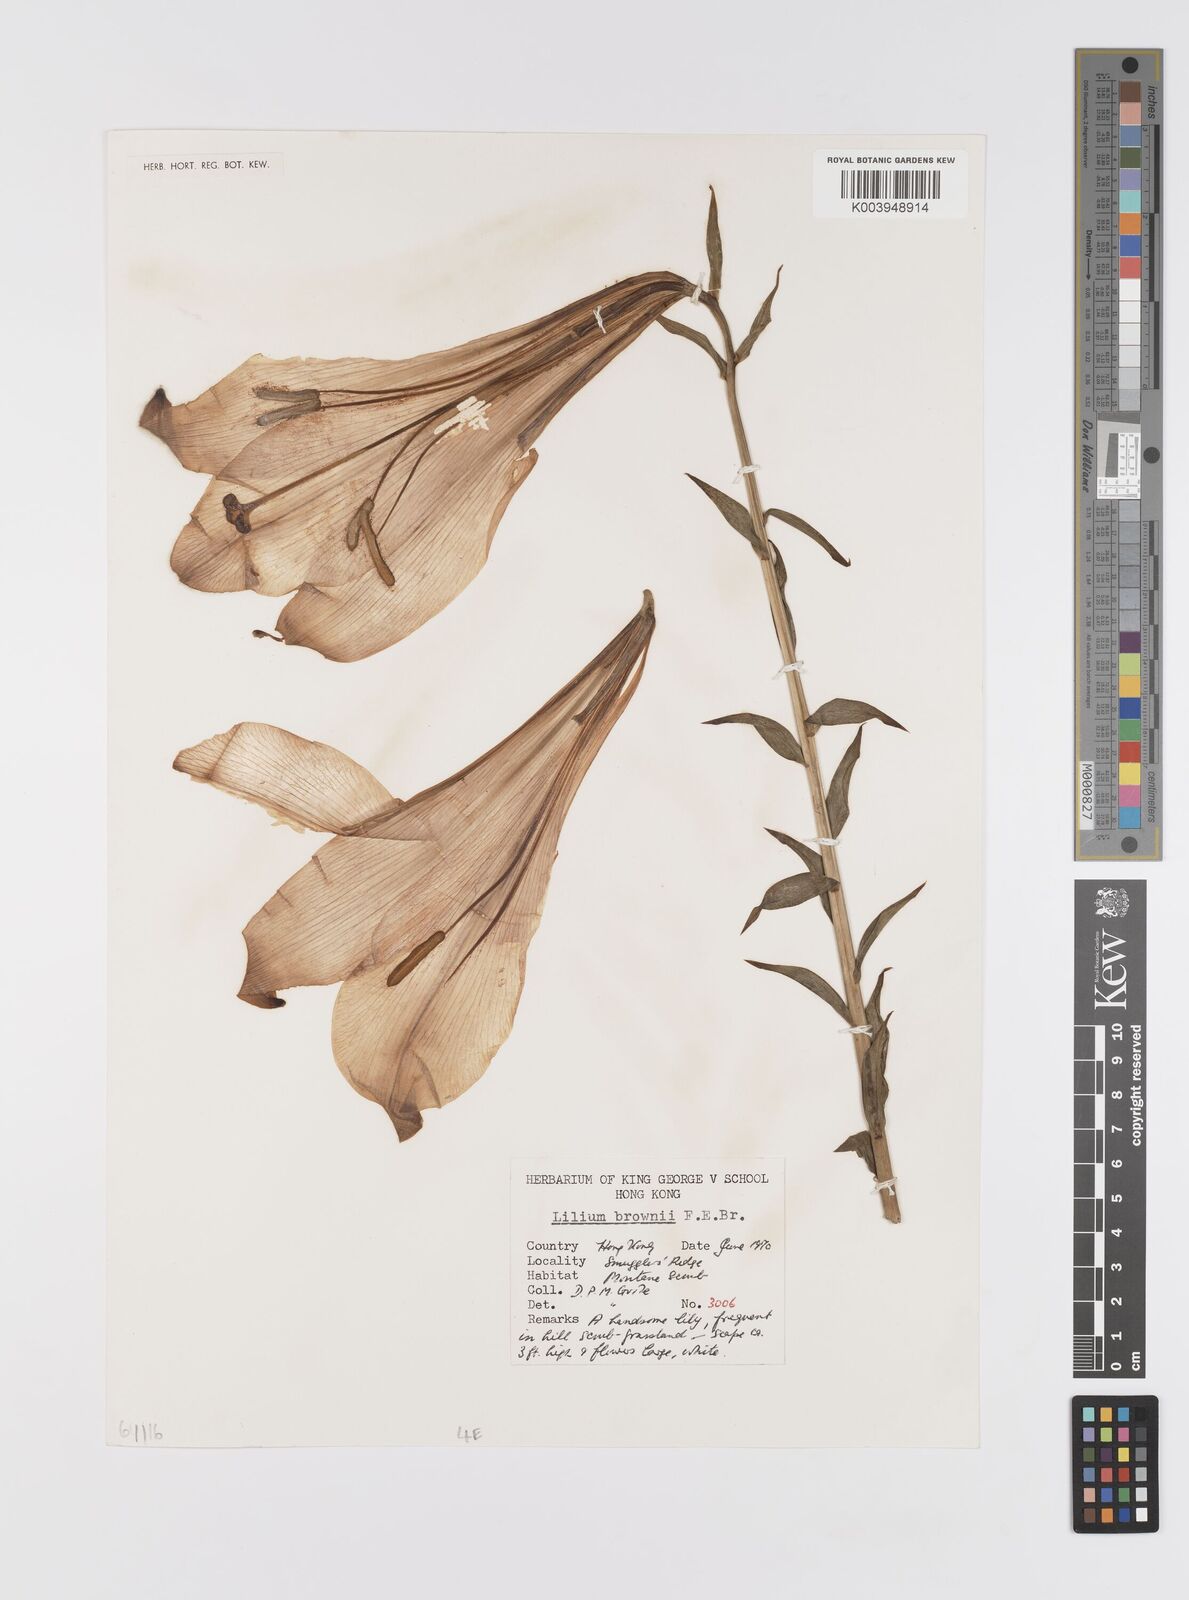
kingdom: Plantae
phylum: Tracheophyta
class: Liliopsida
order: Liliales
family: Liliaceae
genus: Lilium
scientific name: Lilium japonicum
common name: Japanese lily
